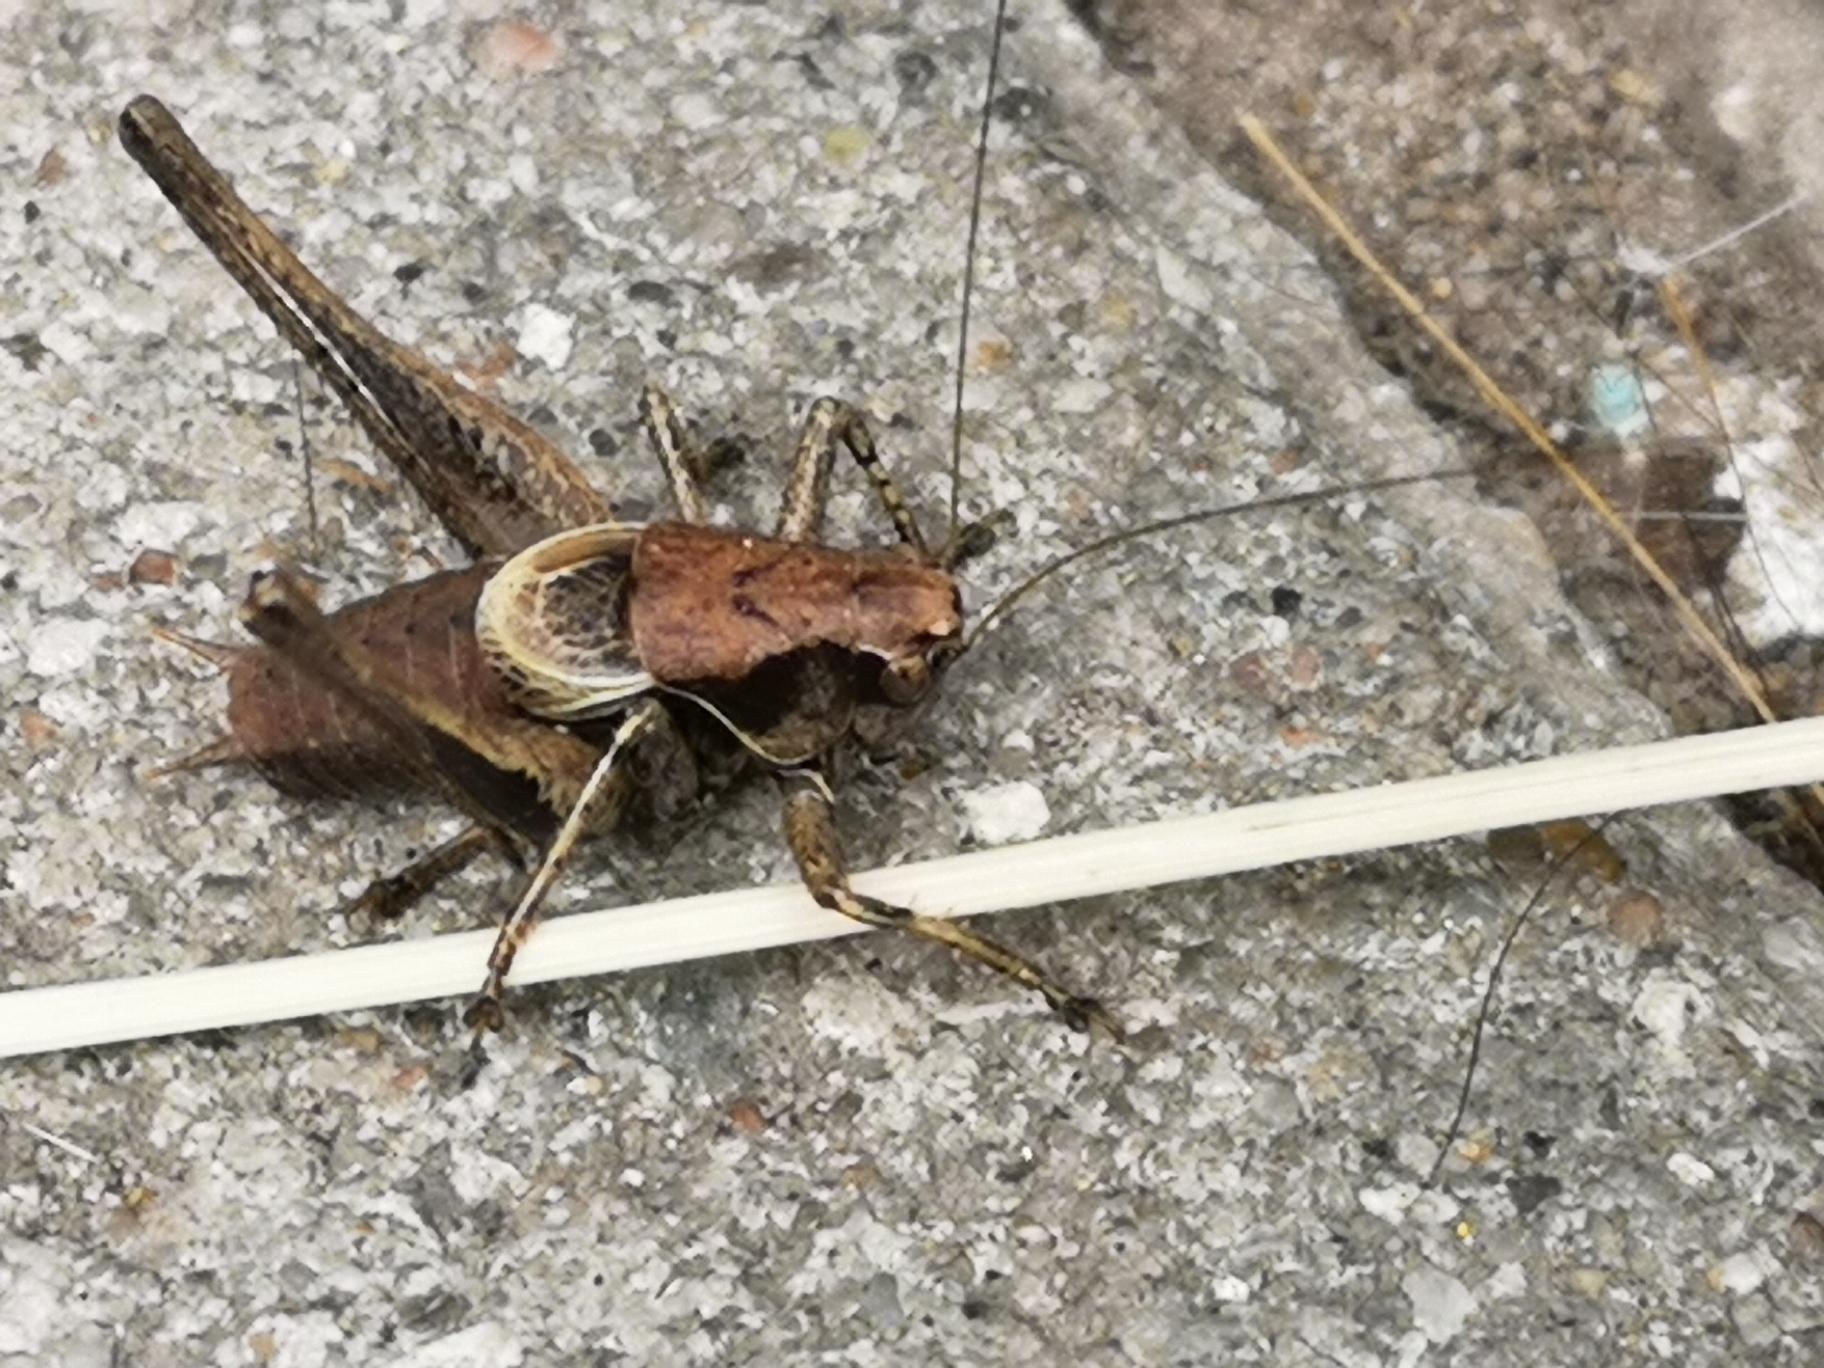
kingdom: Animalia
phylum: Arthropoda
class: Insecta
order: Orthoptera
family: Tettigoniidae
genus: Pholidoptera
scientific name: Pholidoptera griseoaptera
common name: Buskgræshoppe
